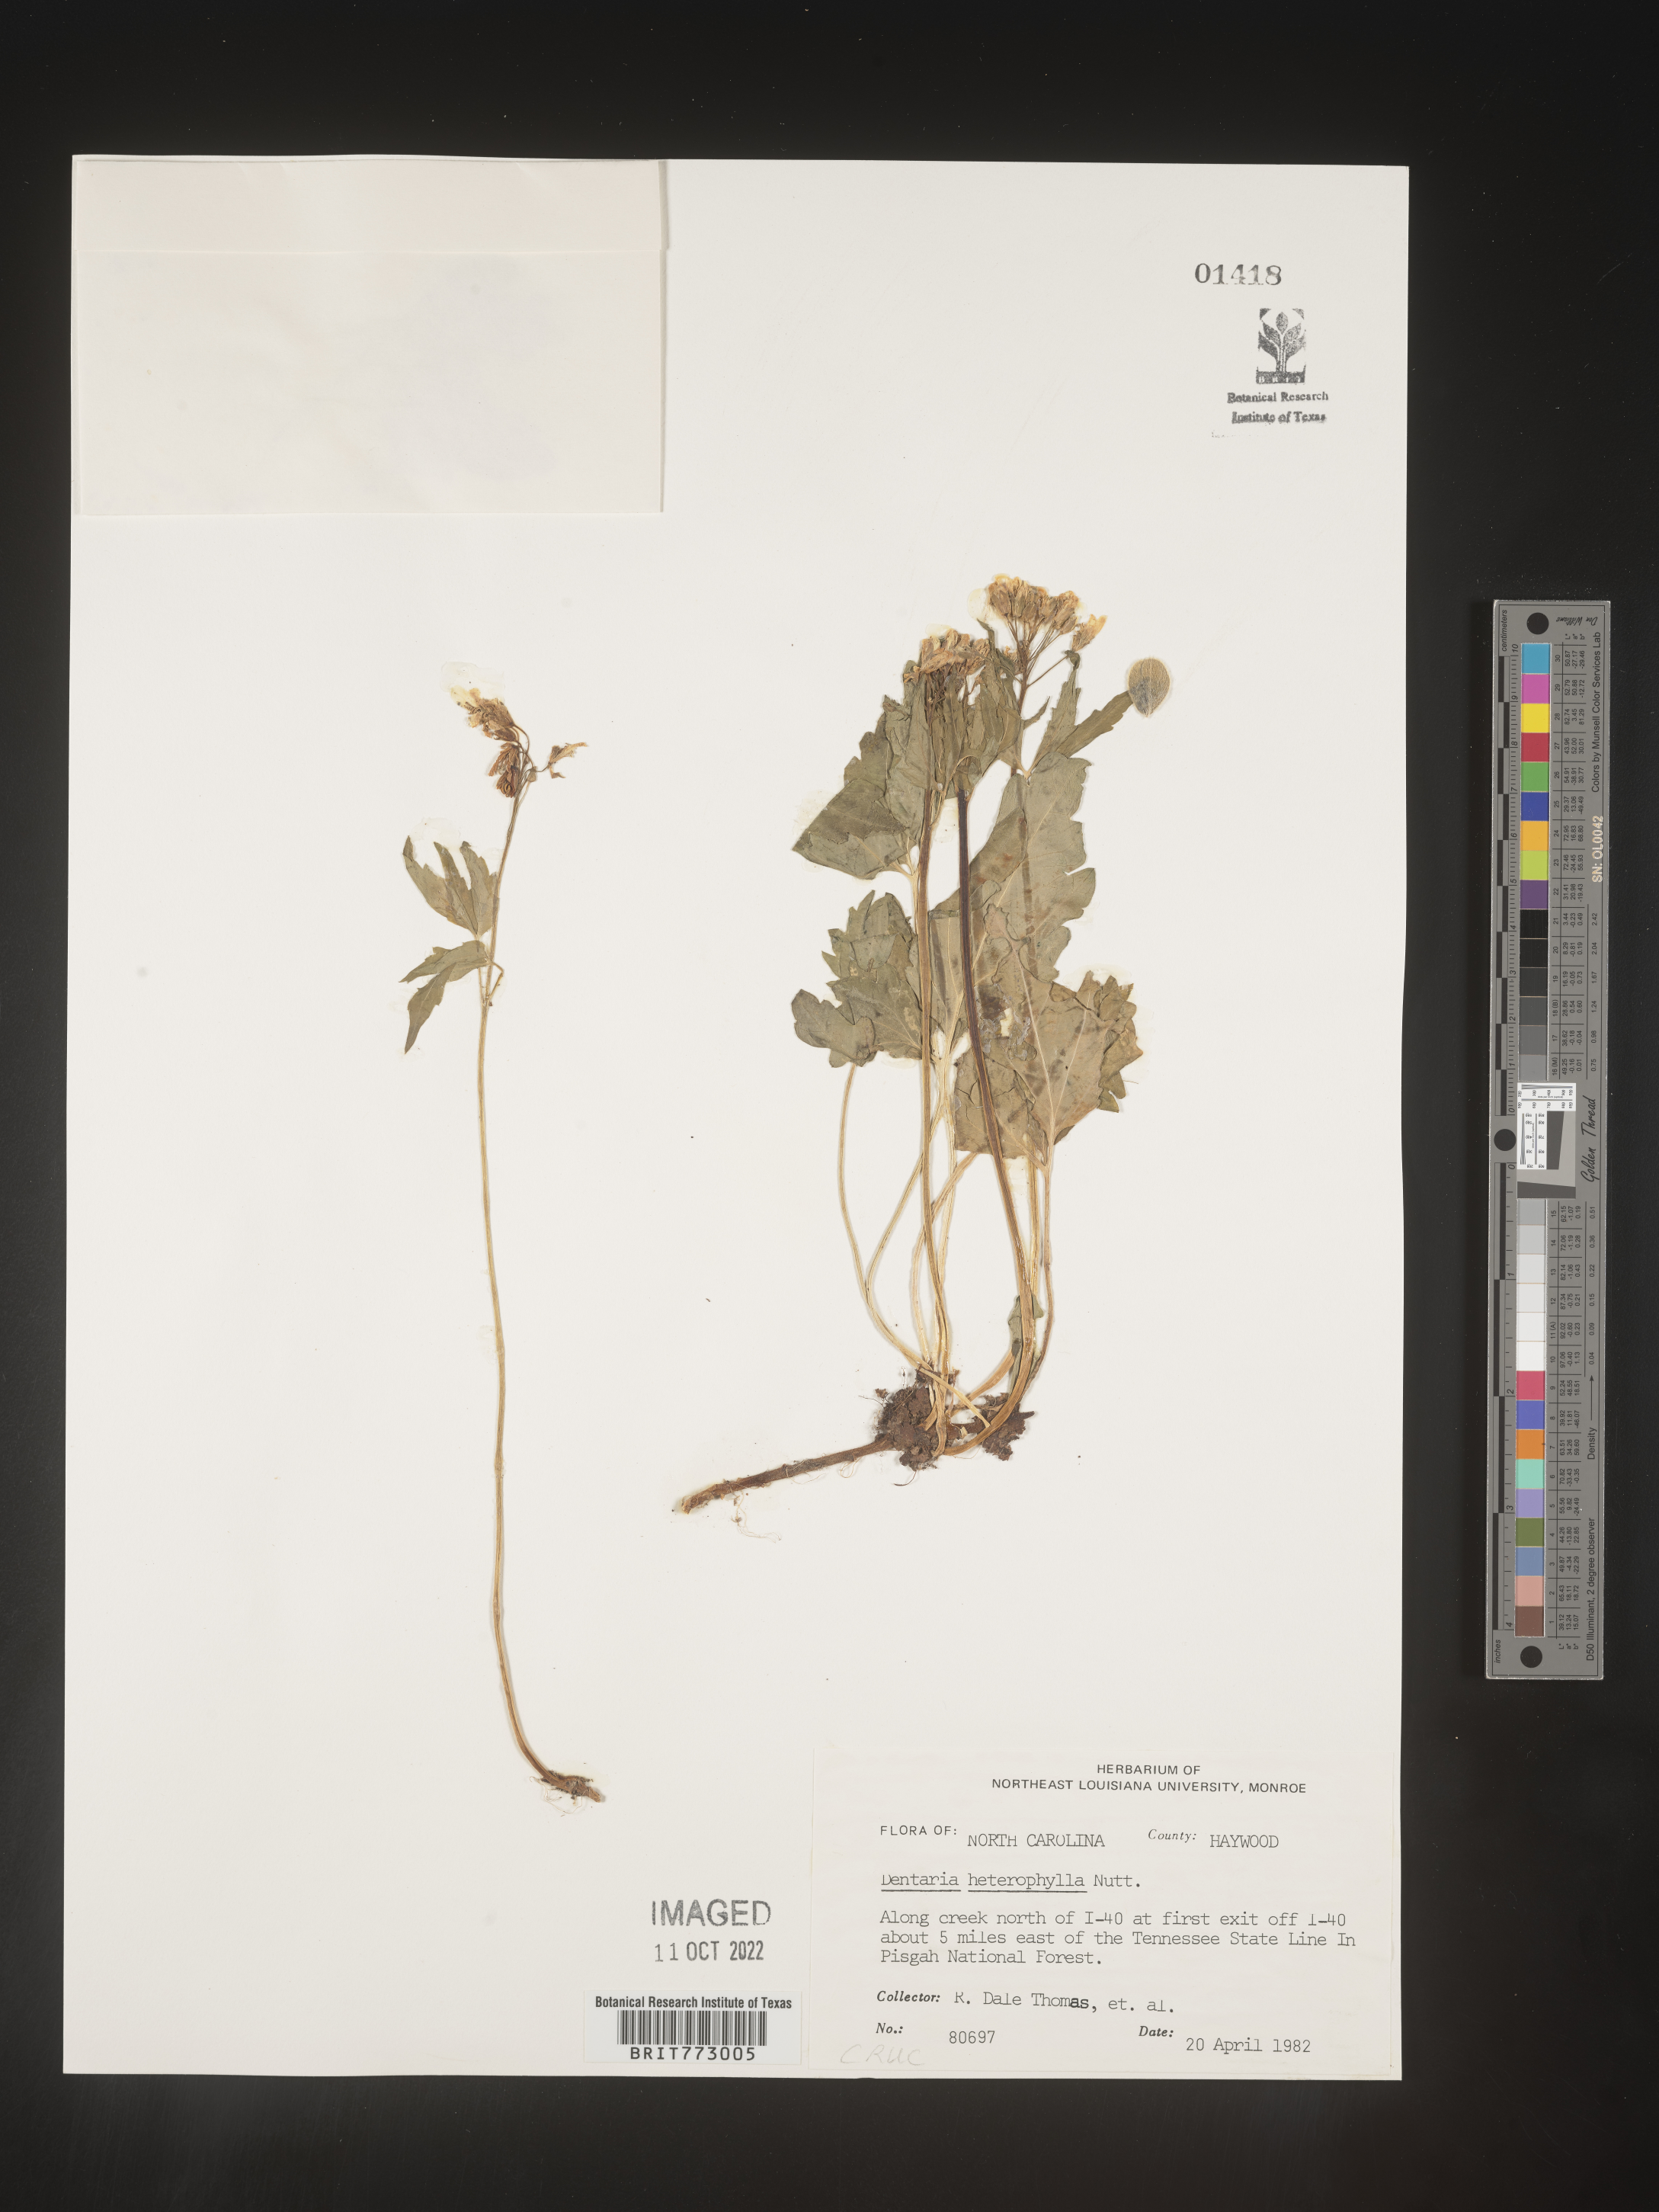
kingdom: Plantae
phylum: Tracheophyta
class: Magnoliopsida
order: Brassicales
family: Brassicaceae
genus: Cardamine
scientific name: Cardamine angustata
